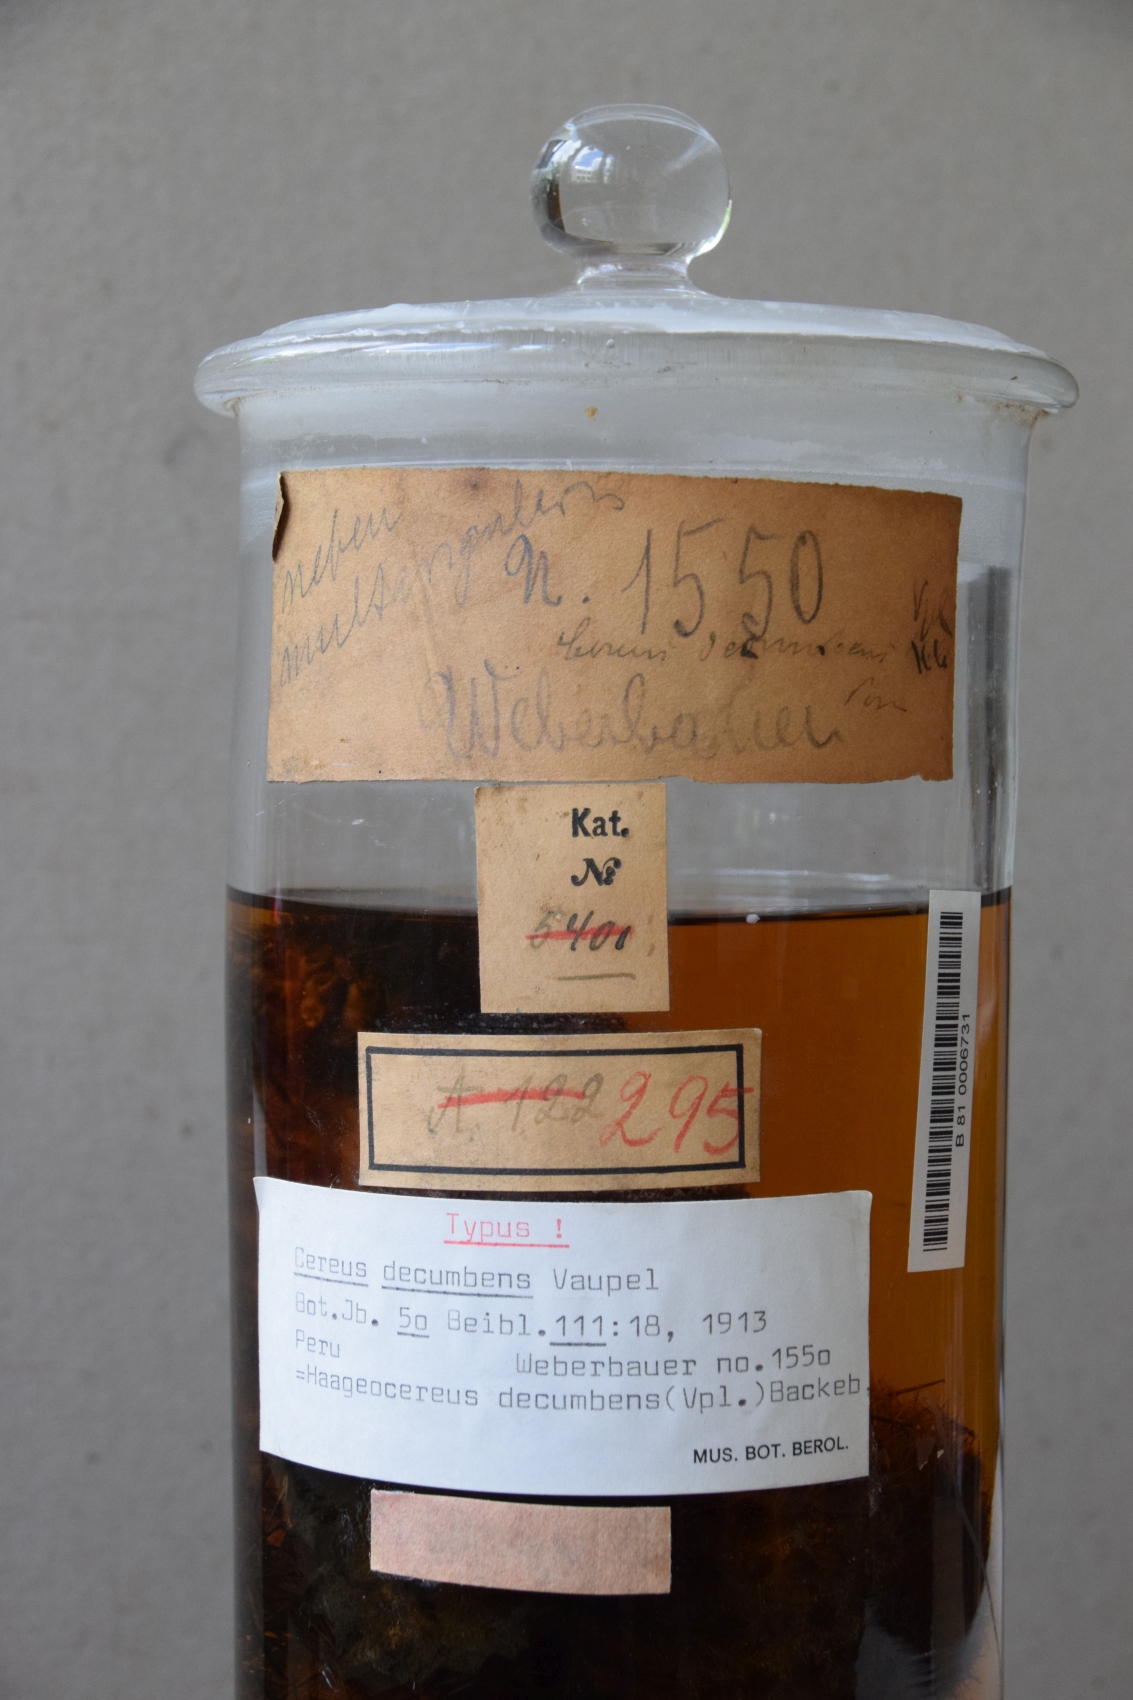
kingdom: Plantae
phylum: Tracheophyta
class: Magnoliopsida
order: Caryophyllales
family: Cactaceae
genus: Haageocereus
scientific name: Haageocereus decumbens
